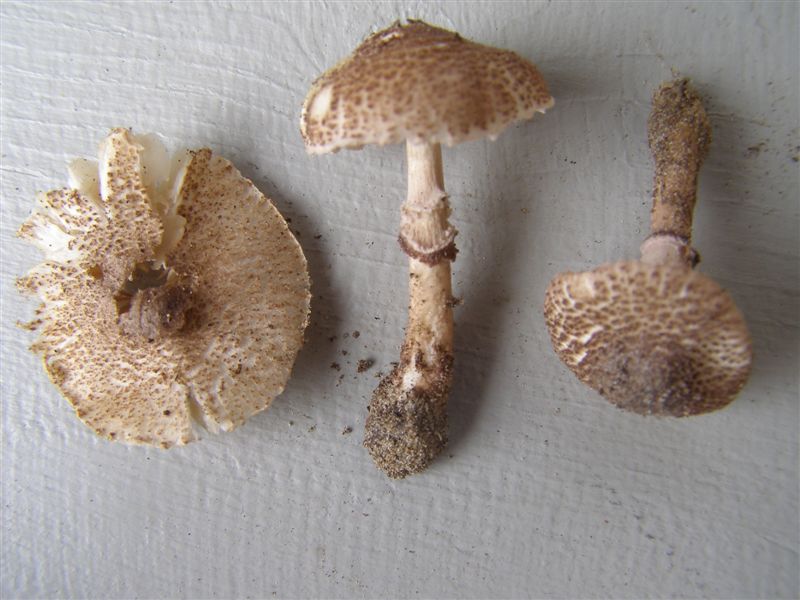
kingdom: Fungi
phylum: Basidiomycota
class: Agaricomycetes
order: Agaricales
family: Agaricaceae
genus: Lepiota
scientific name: Lepiota pseudolilacea
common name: gråbrun parasolhat
